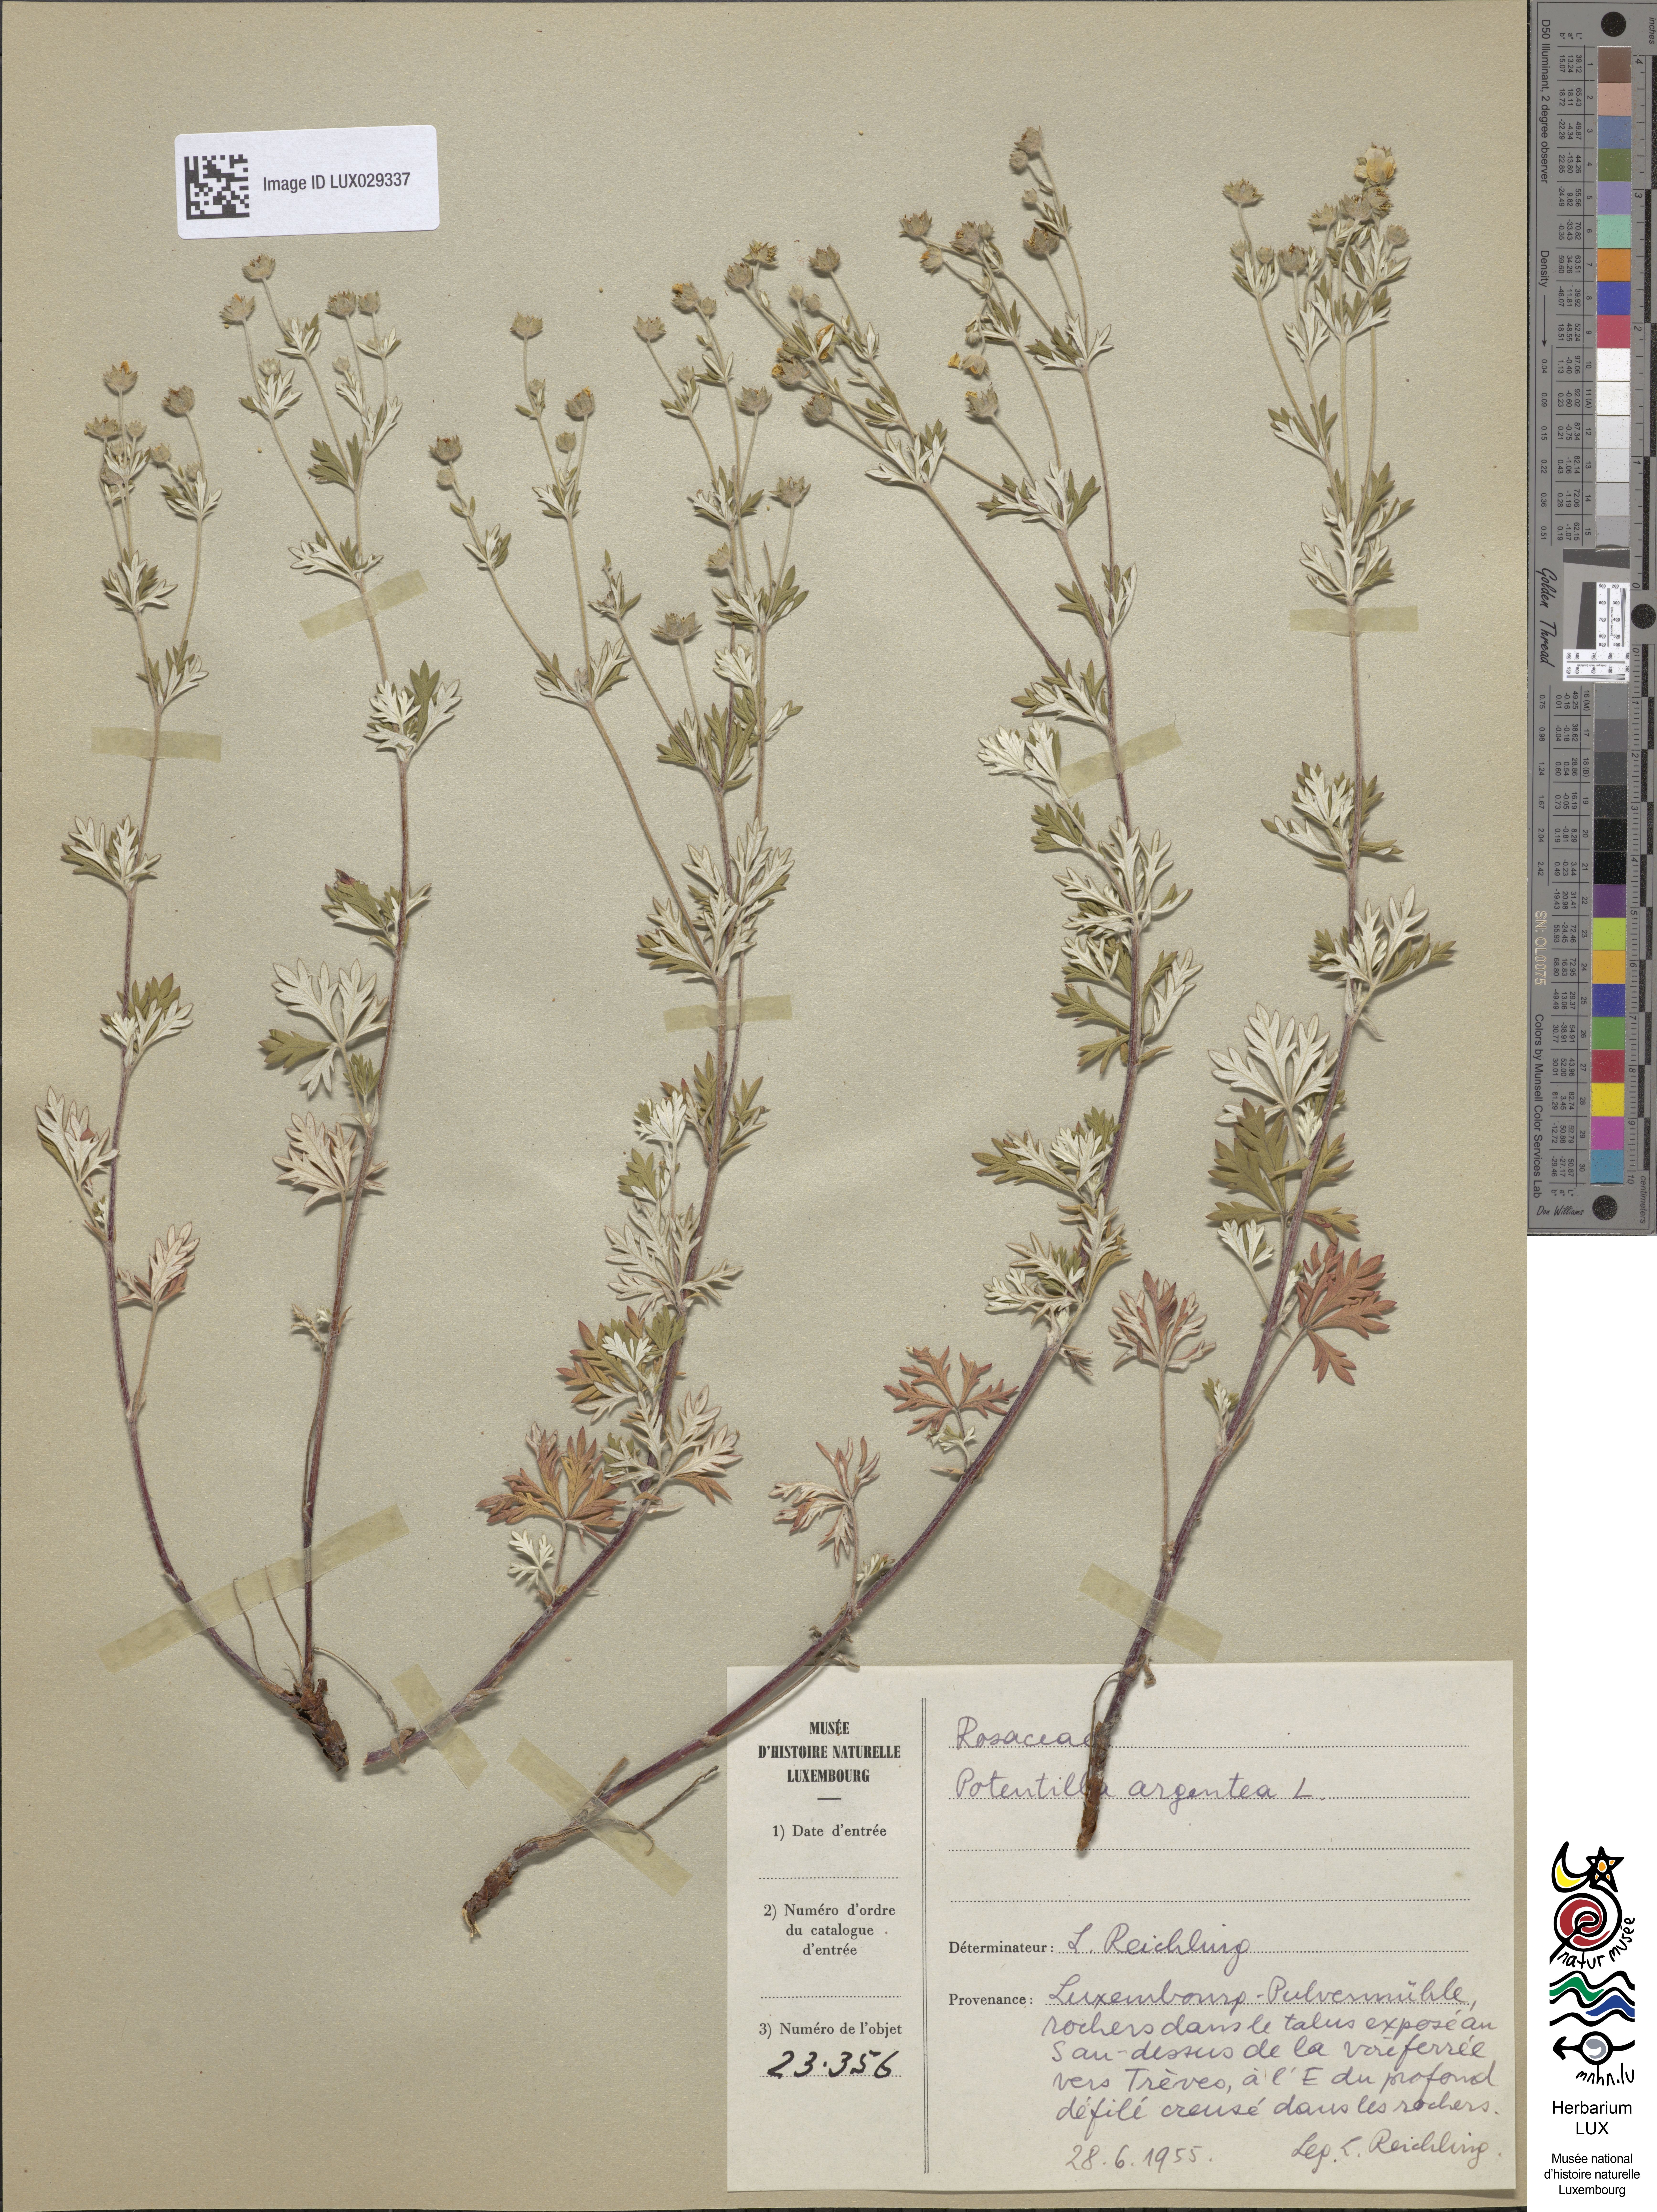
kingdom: Plantae
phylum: Tracheophyta
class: Magnoliopsida
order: Rosales
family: Rosaceae
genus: Potentilla
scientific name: Potentilla argentea
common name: Hoary cinquefoil
